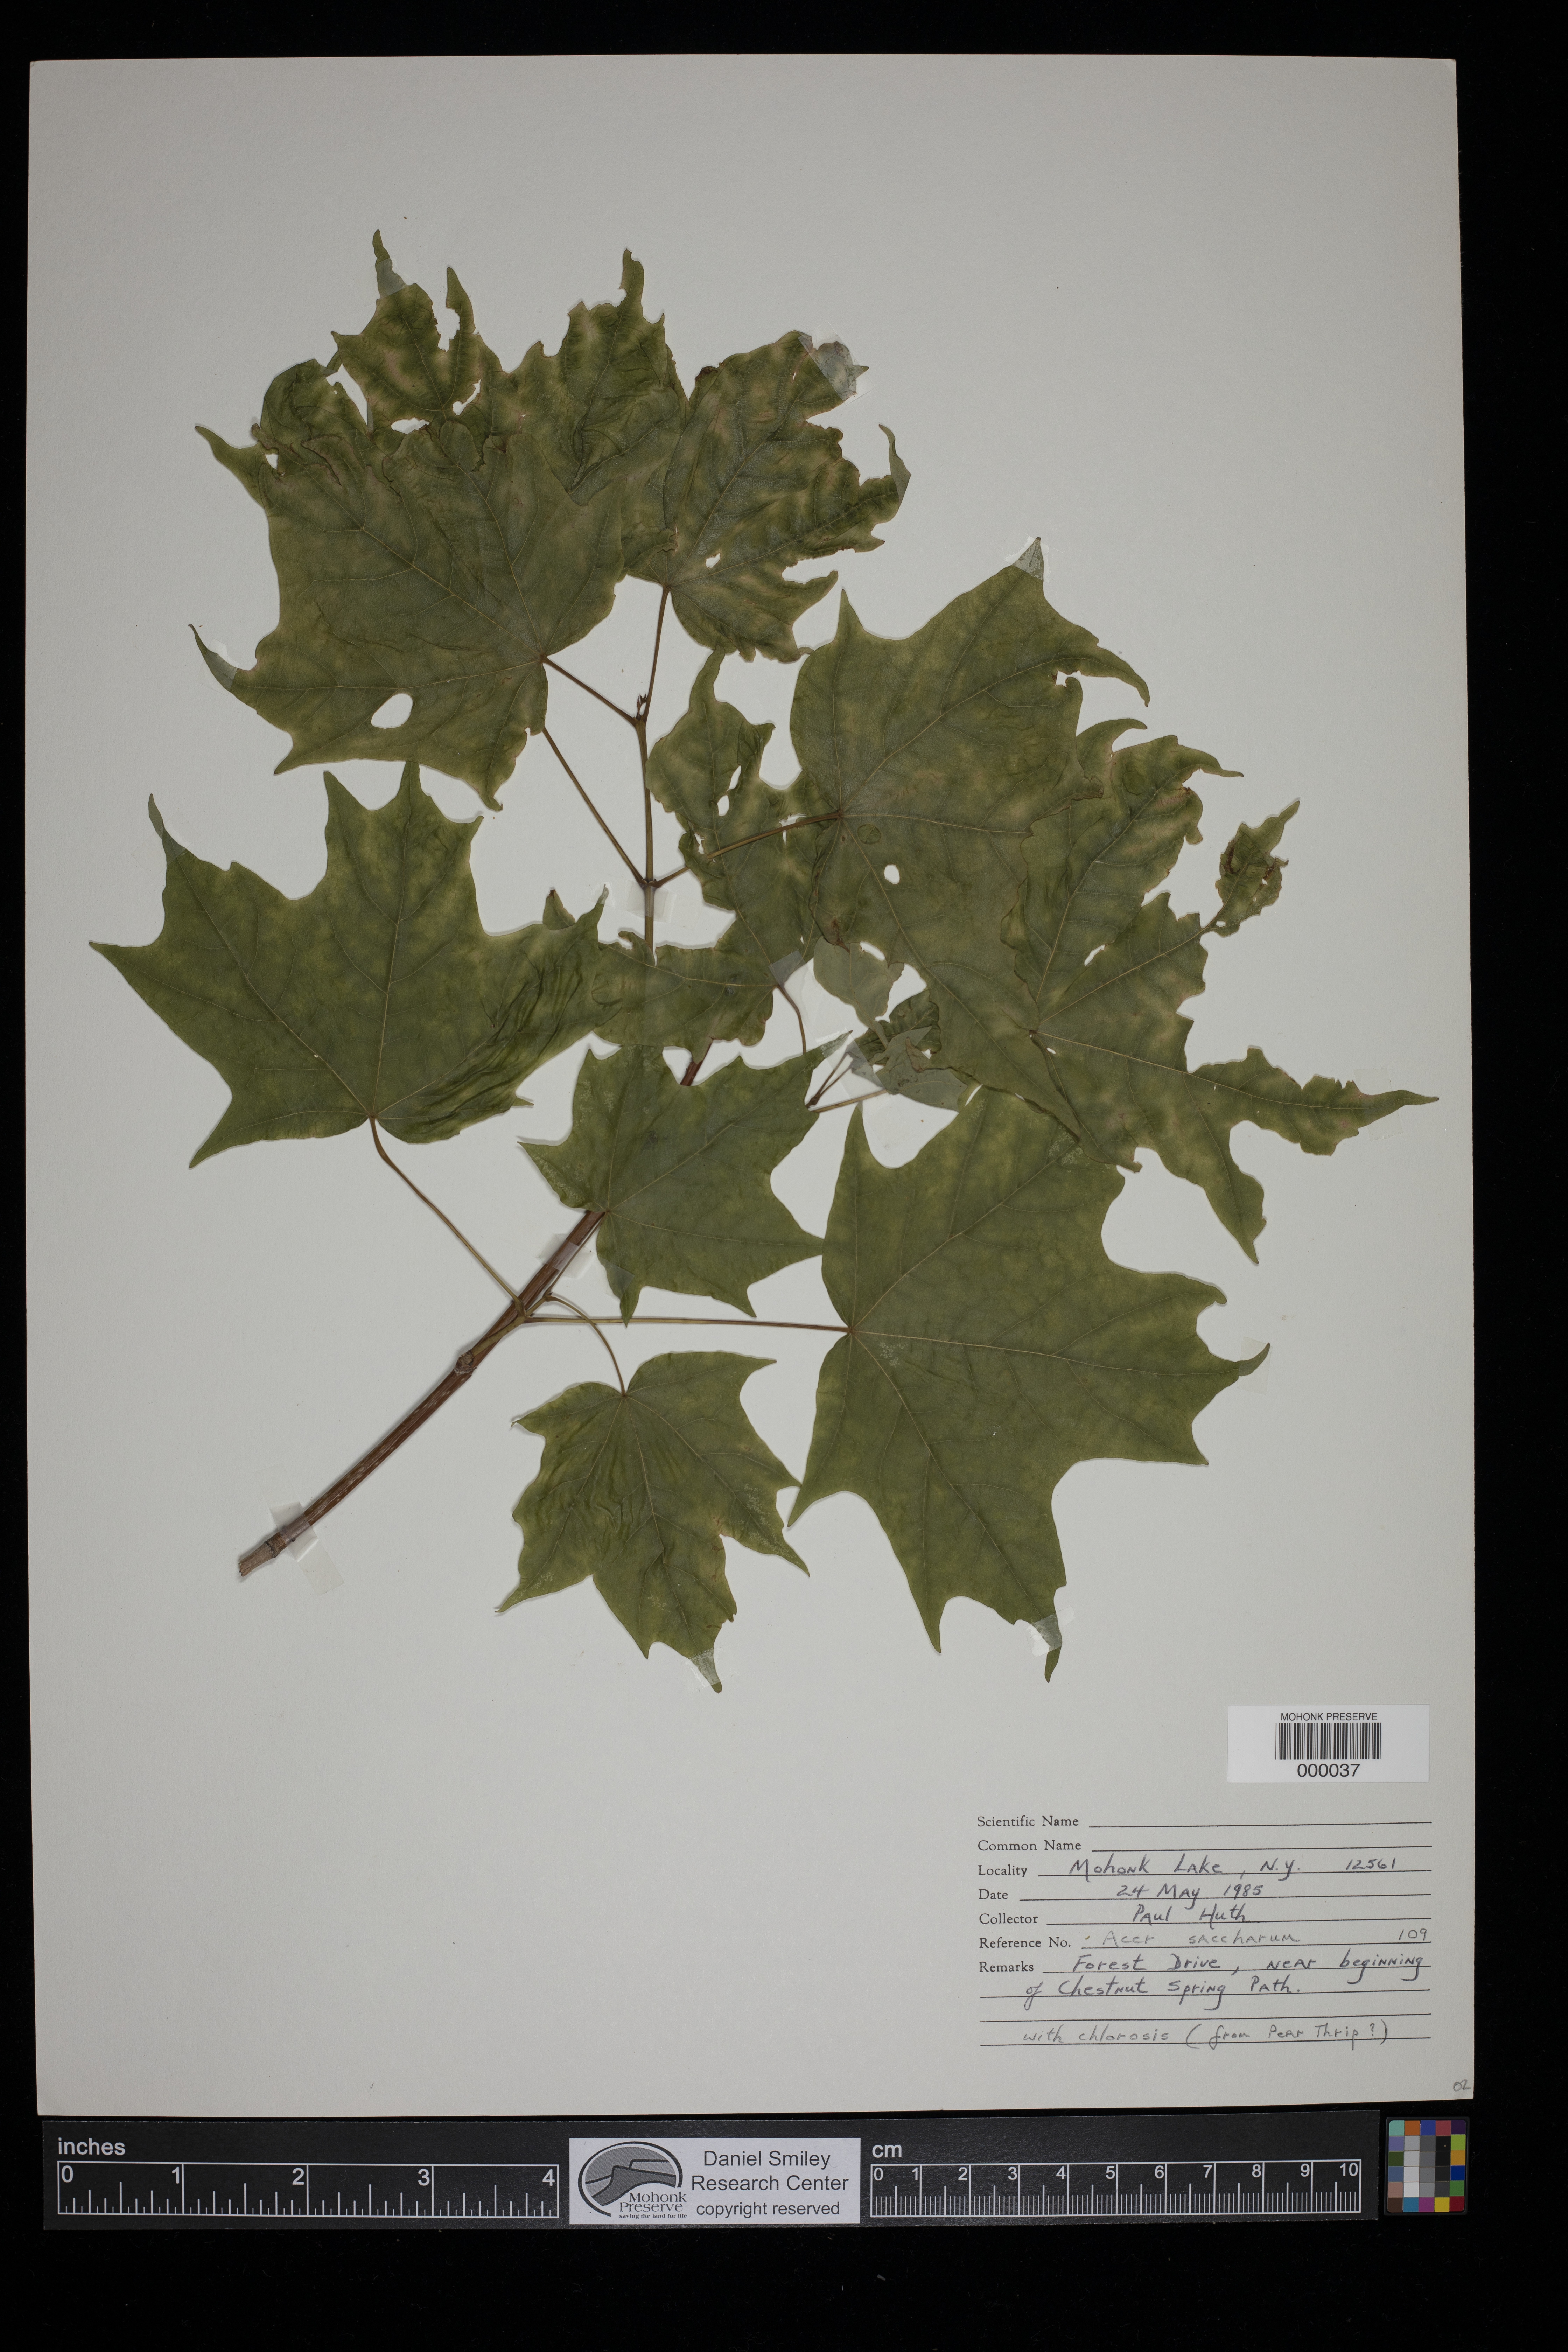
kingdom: Plantae
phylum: Tracheophyta
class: Magnoliopsida
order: Sapindales
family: Sapindaceae
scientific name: Sapindaceae
